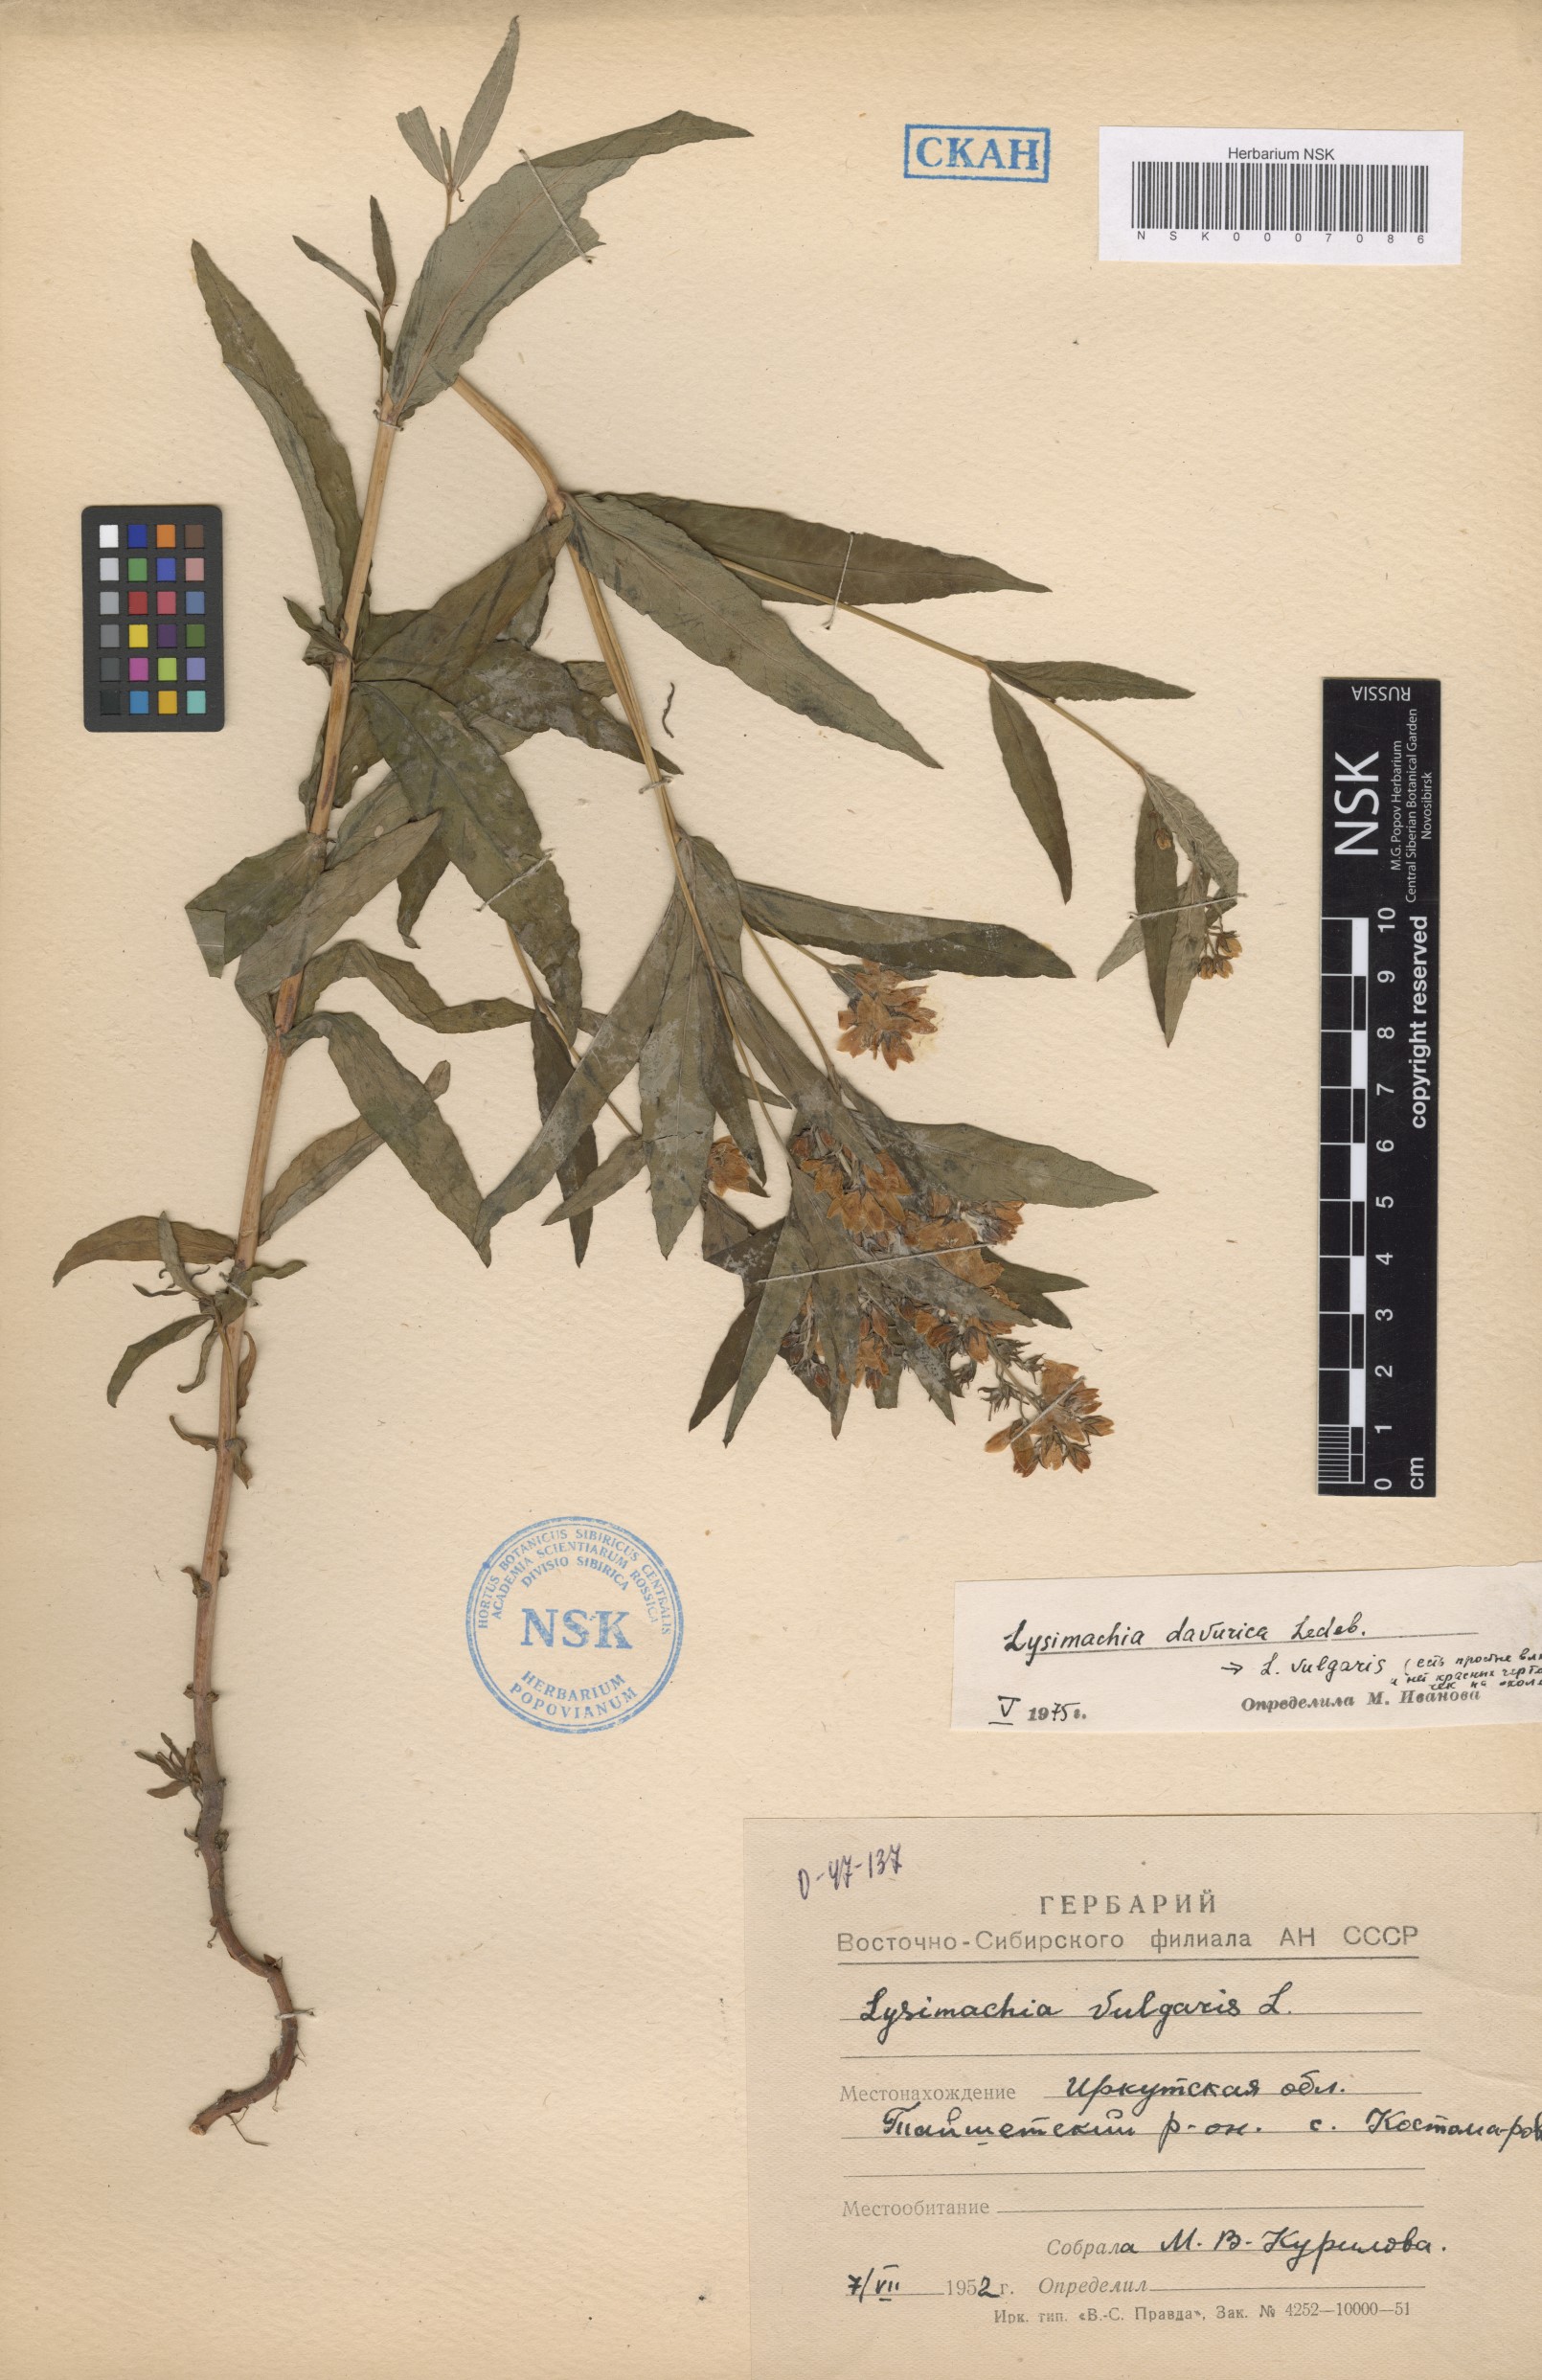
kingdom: Plantae
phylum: Tracheophyta
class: Magnoliopsida
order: Ericales
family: Primulaceae
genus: Lysimachia
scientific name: Lysimachia davurica
